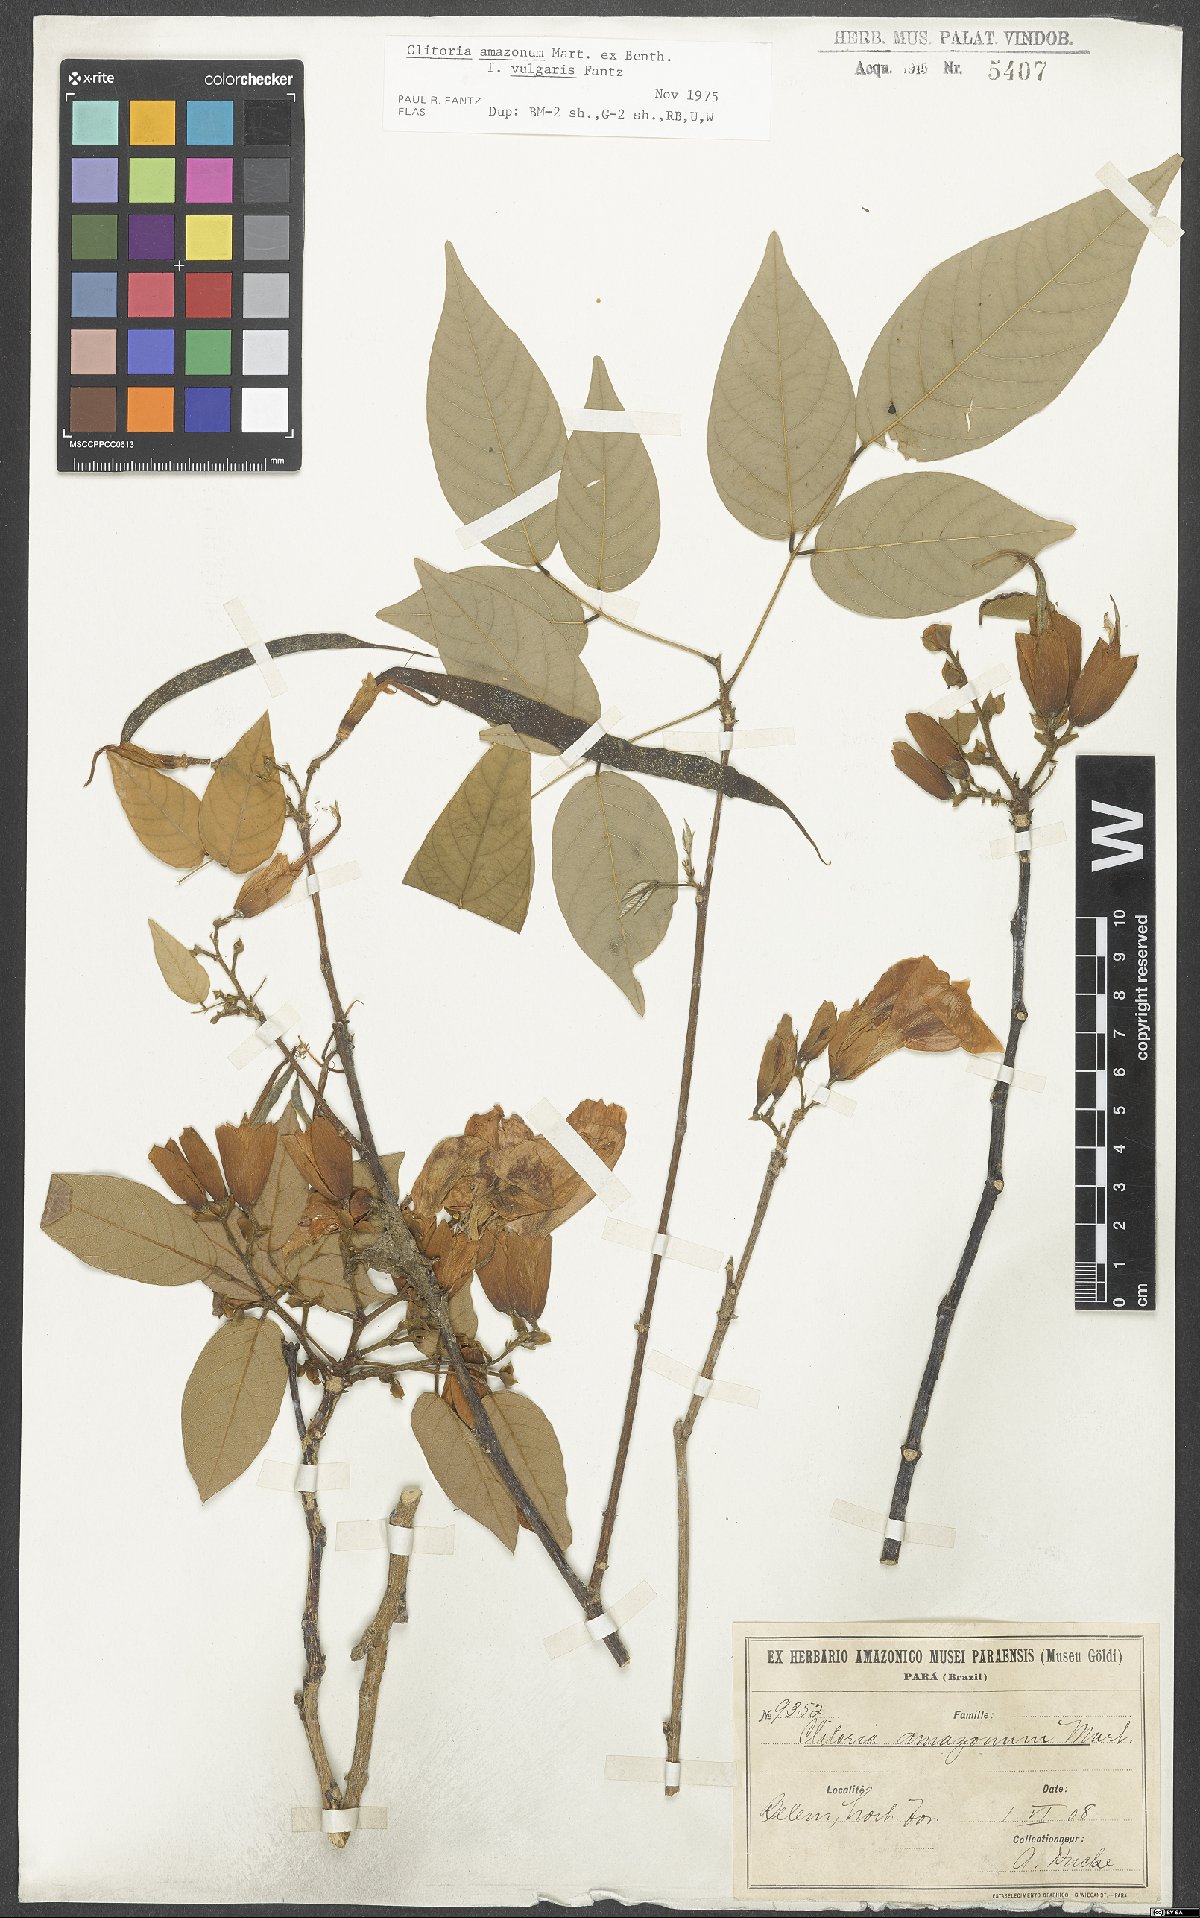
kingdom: Plantae
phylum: Tracheophyta
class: Magnoliopsida
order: Fabales
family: Fabaceae
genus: Clitoria
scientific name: Clitoria amazonum
